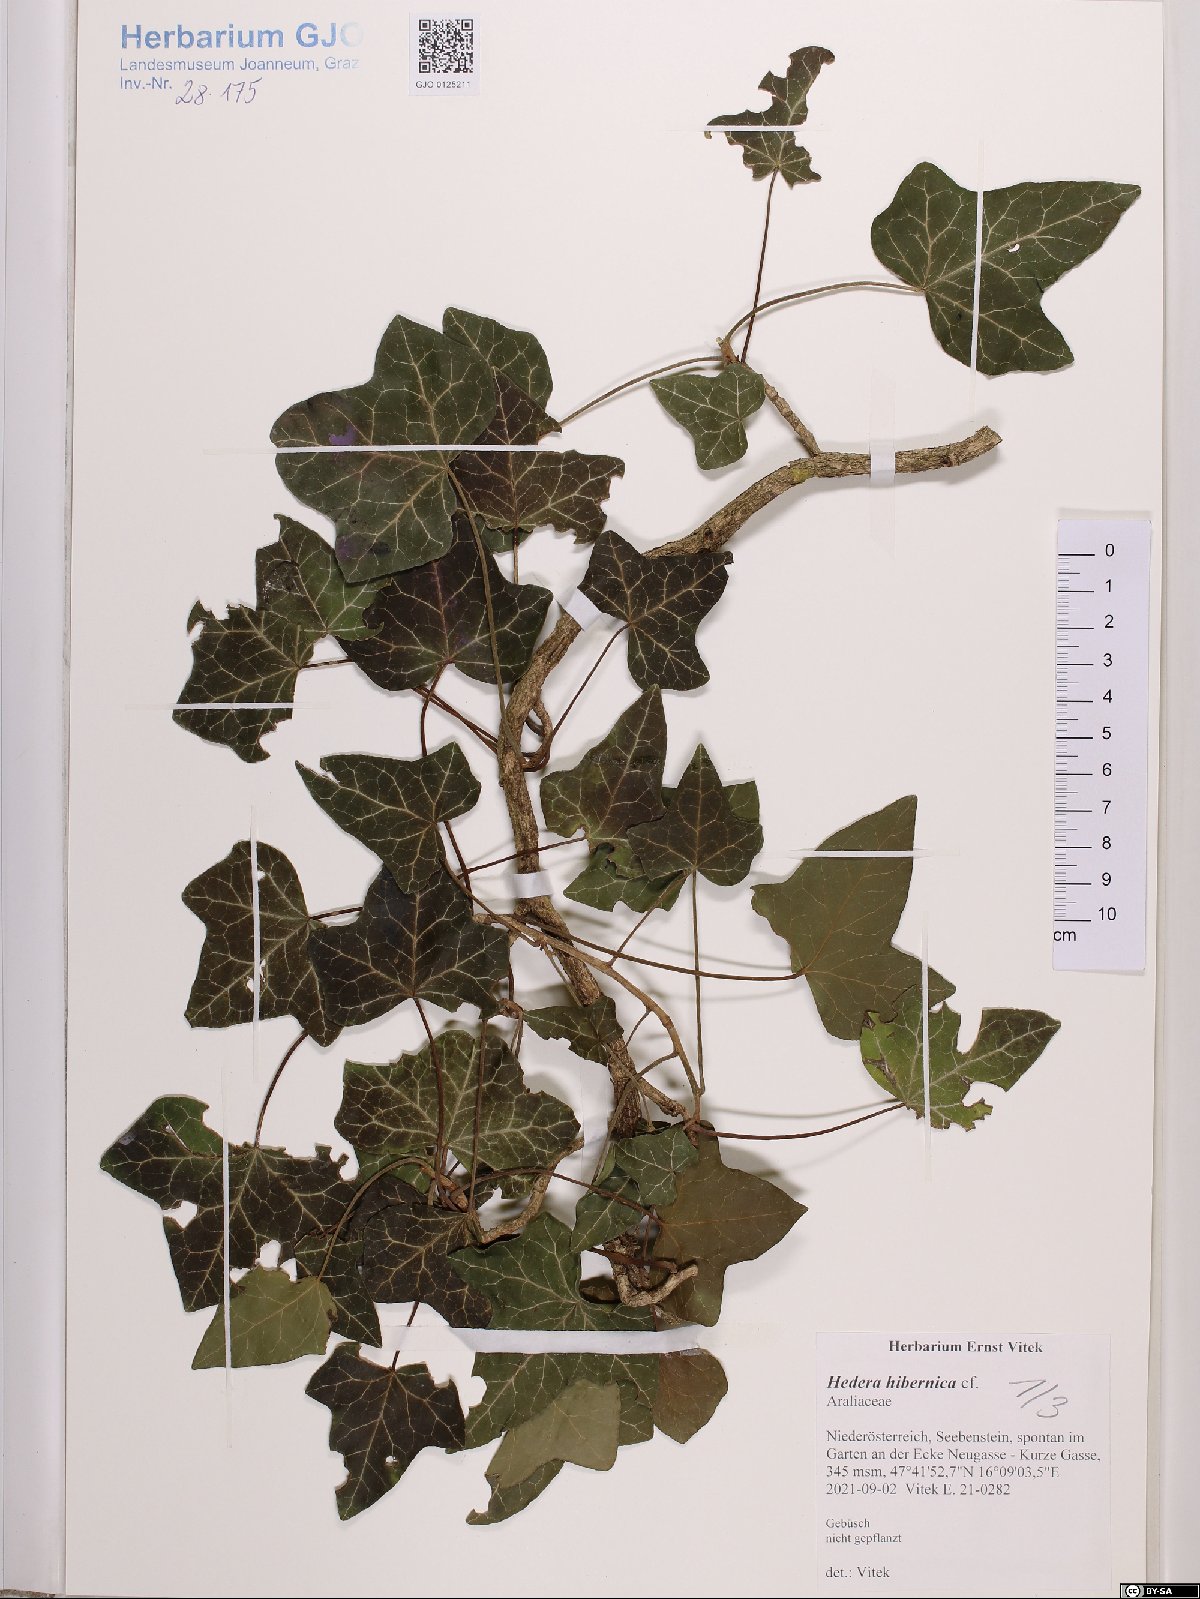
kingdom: Plantae
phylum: Tracheophyta
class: Magnoliopsida
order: Apiales
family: Araliaceae
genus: Hedera
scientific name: Hedera hibernica
